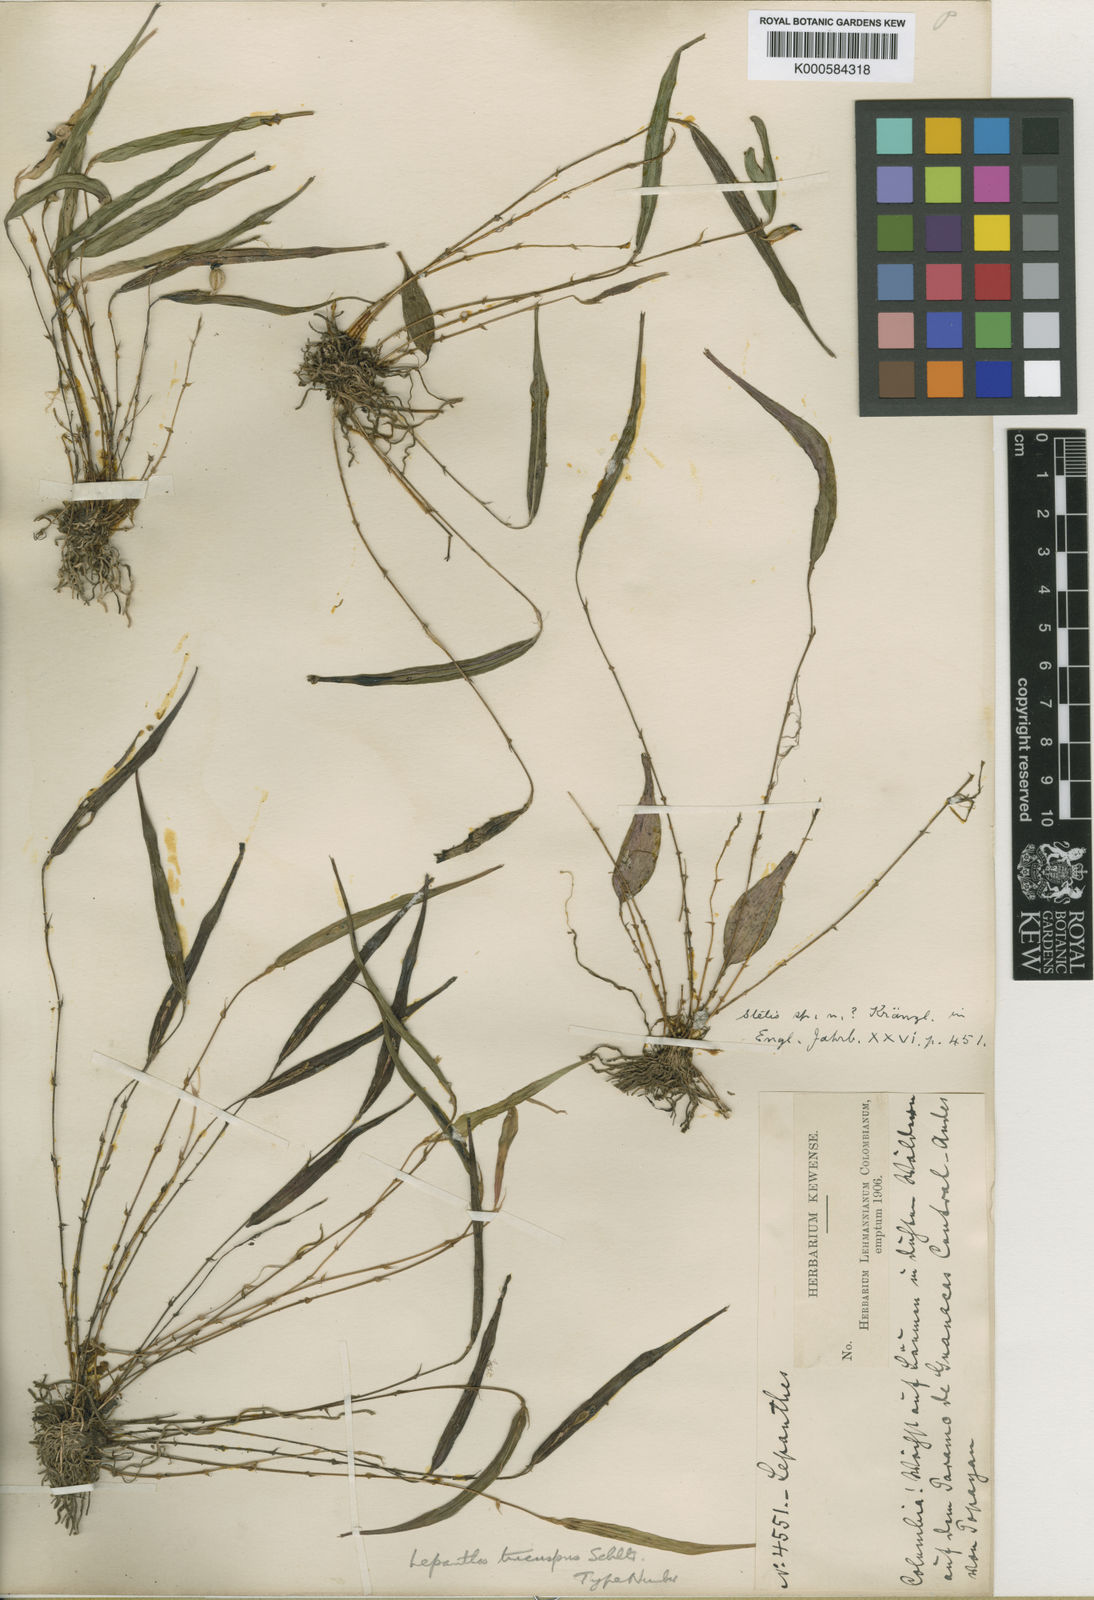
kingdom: Plantae
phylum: Tracheophyta
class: Liliopsida
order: Asparagales
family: Orchidaceae
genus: Lepanthes
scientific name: Lepanthes mucronata
